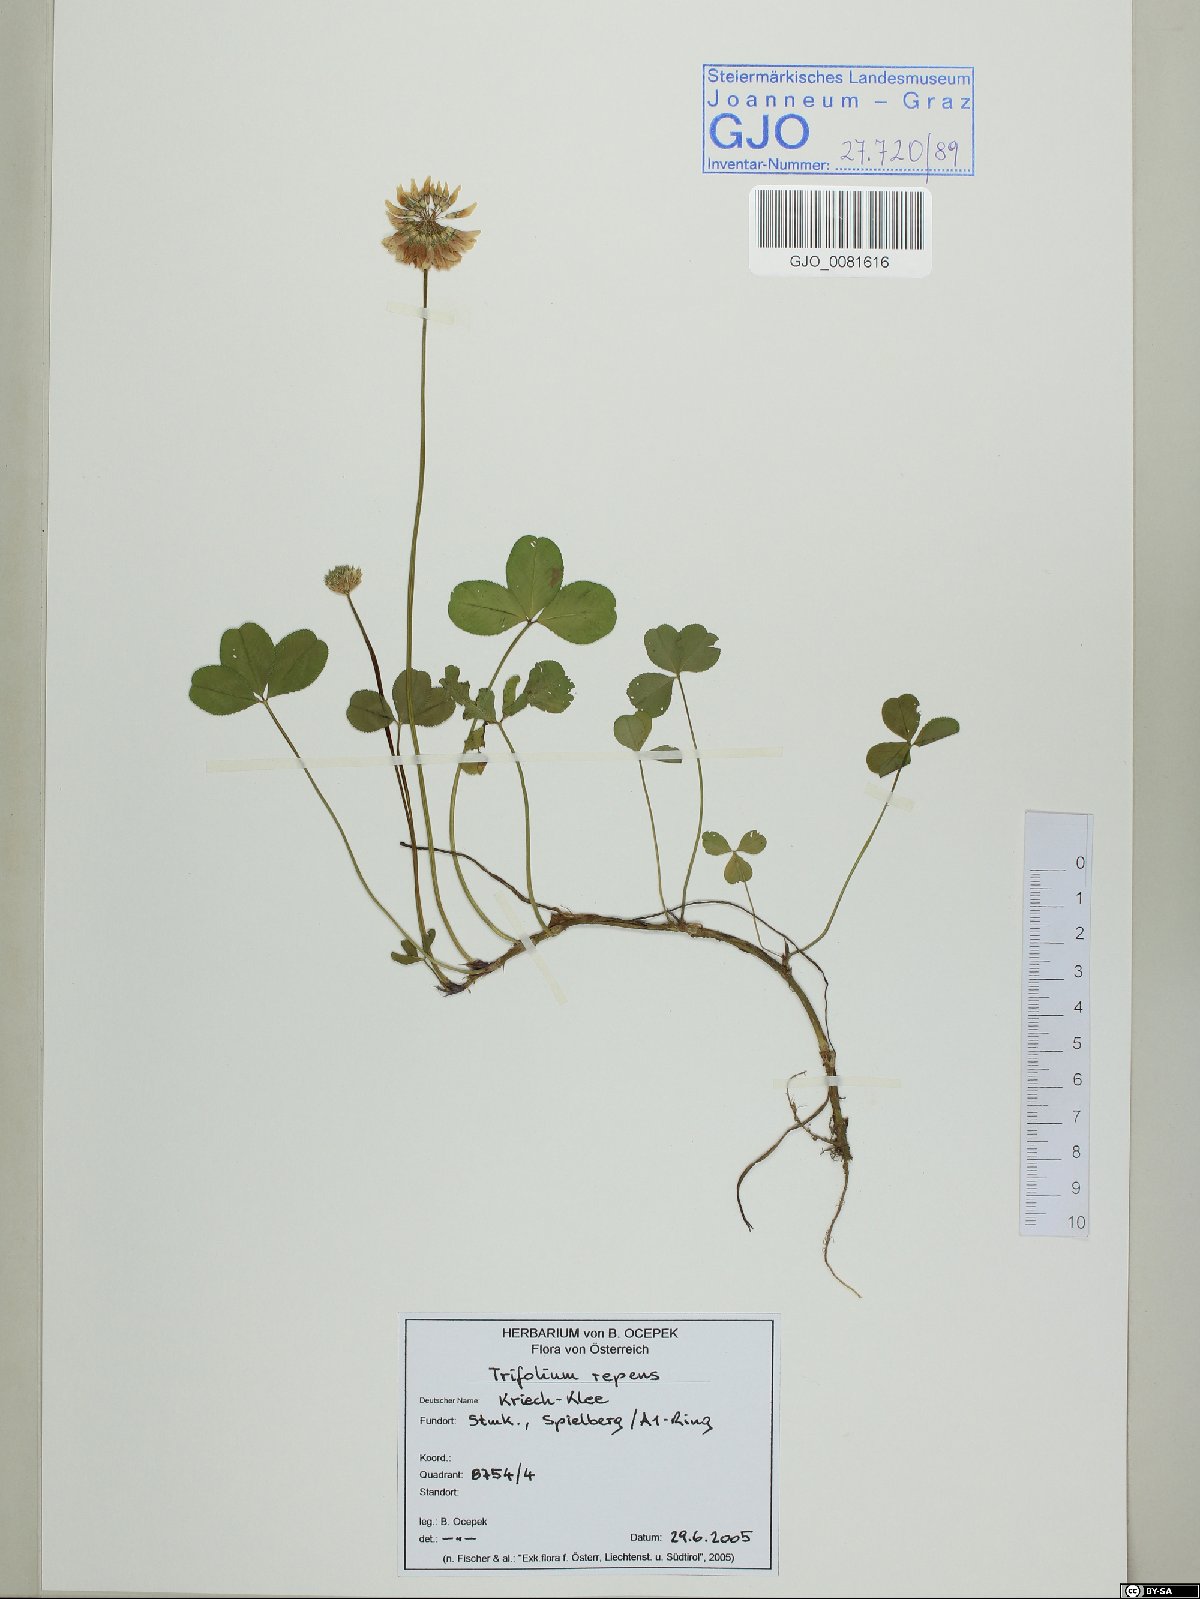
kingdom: Plantae
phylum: Tracheophyta
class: Magnoliopsida
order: Fabales
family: Fabaceae
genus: Trifolium
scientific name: Trifolium repens
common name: White clover
